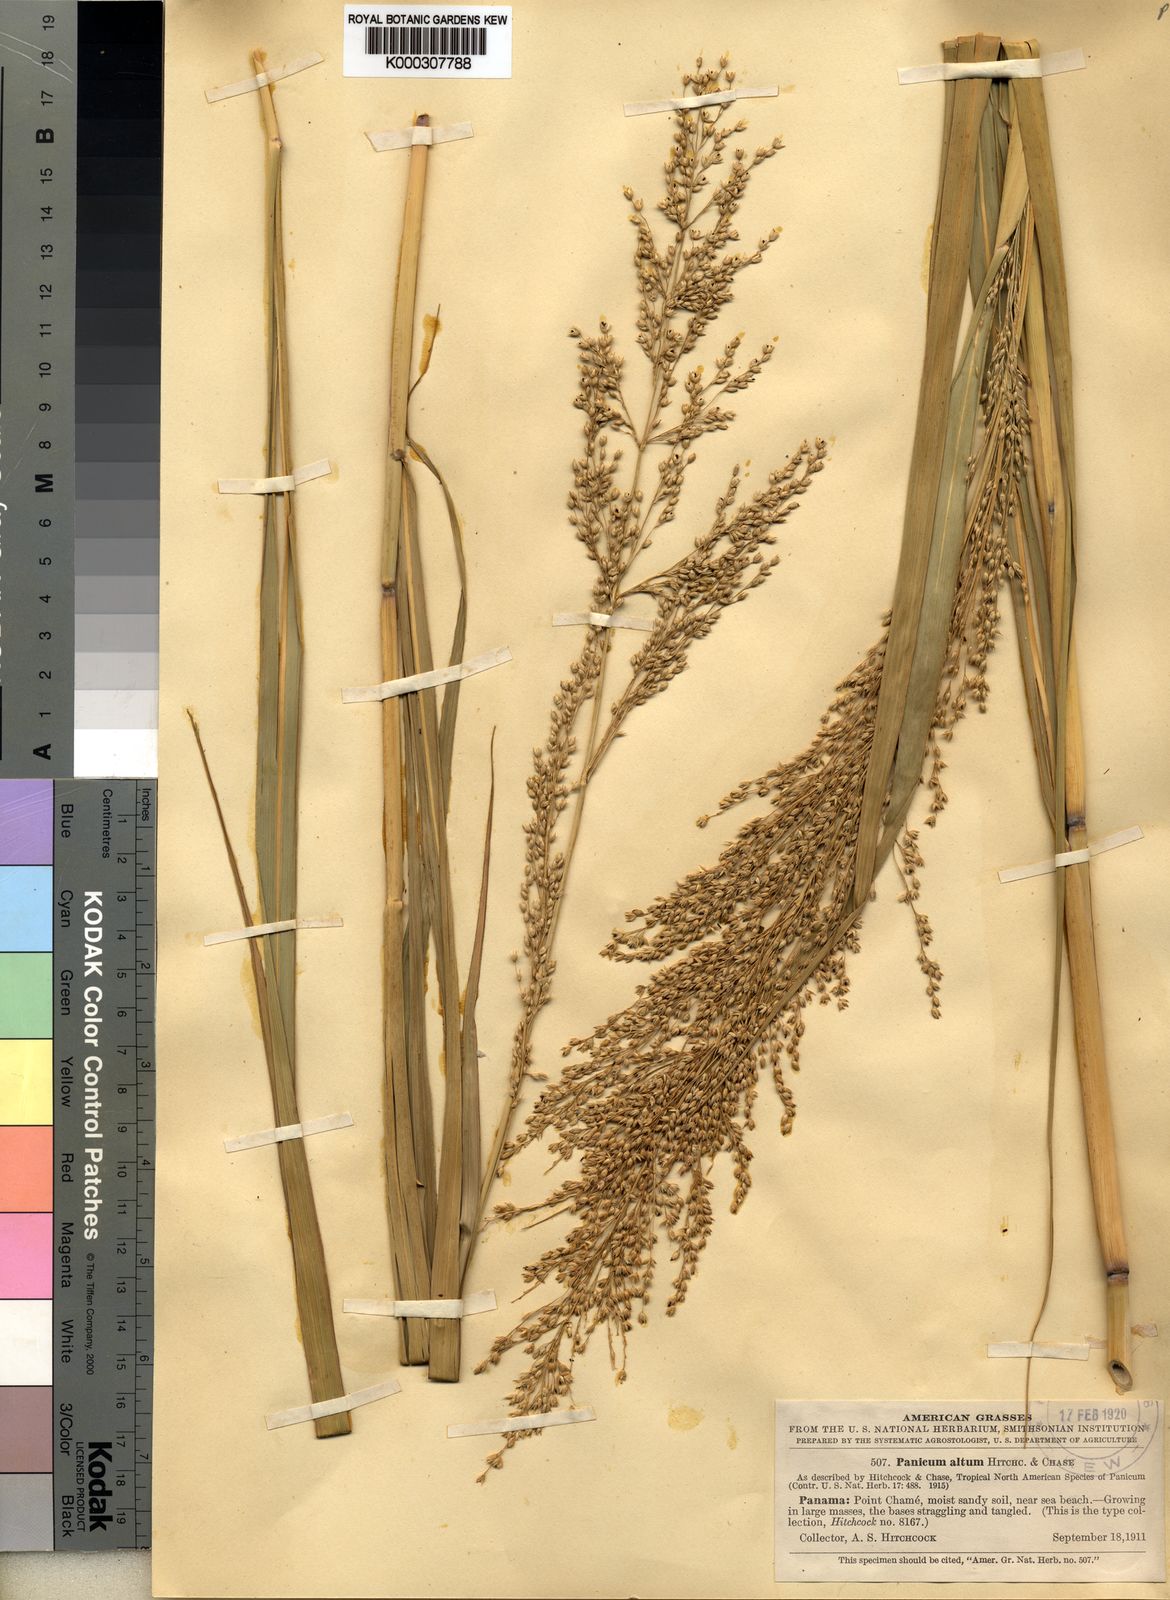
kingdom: Plantae
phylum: Tracheophyta
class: Liliopsida
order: Poales
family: Poaceae
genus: Panicum
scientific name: Panicum altum
